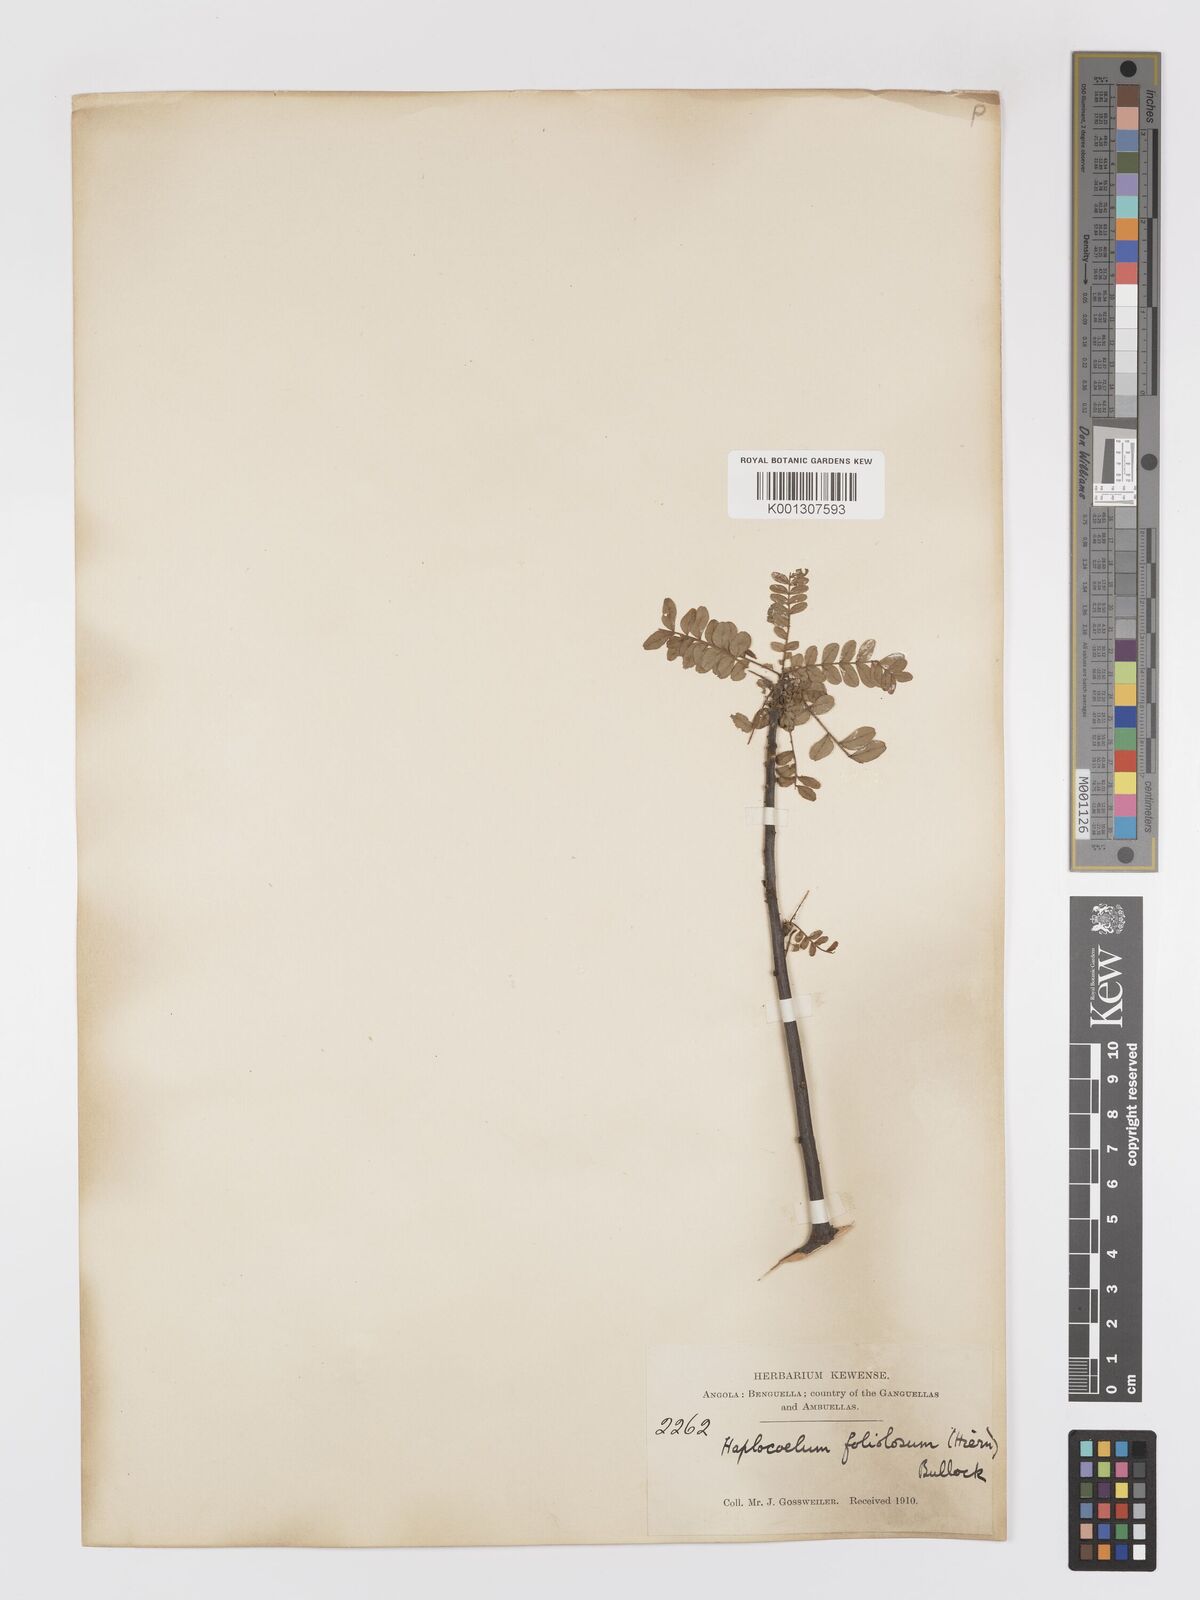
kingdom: Plantae
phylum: Tracheophyta
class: Magnoliopsida
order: Sapindales
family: Sapindaceae
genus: Haplocoelum
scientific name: Haplocoelum
